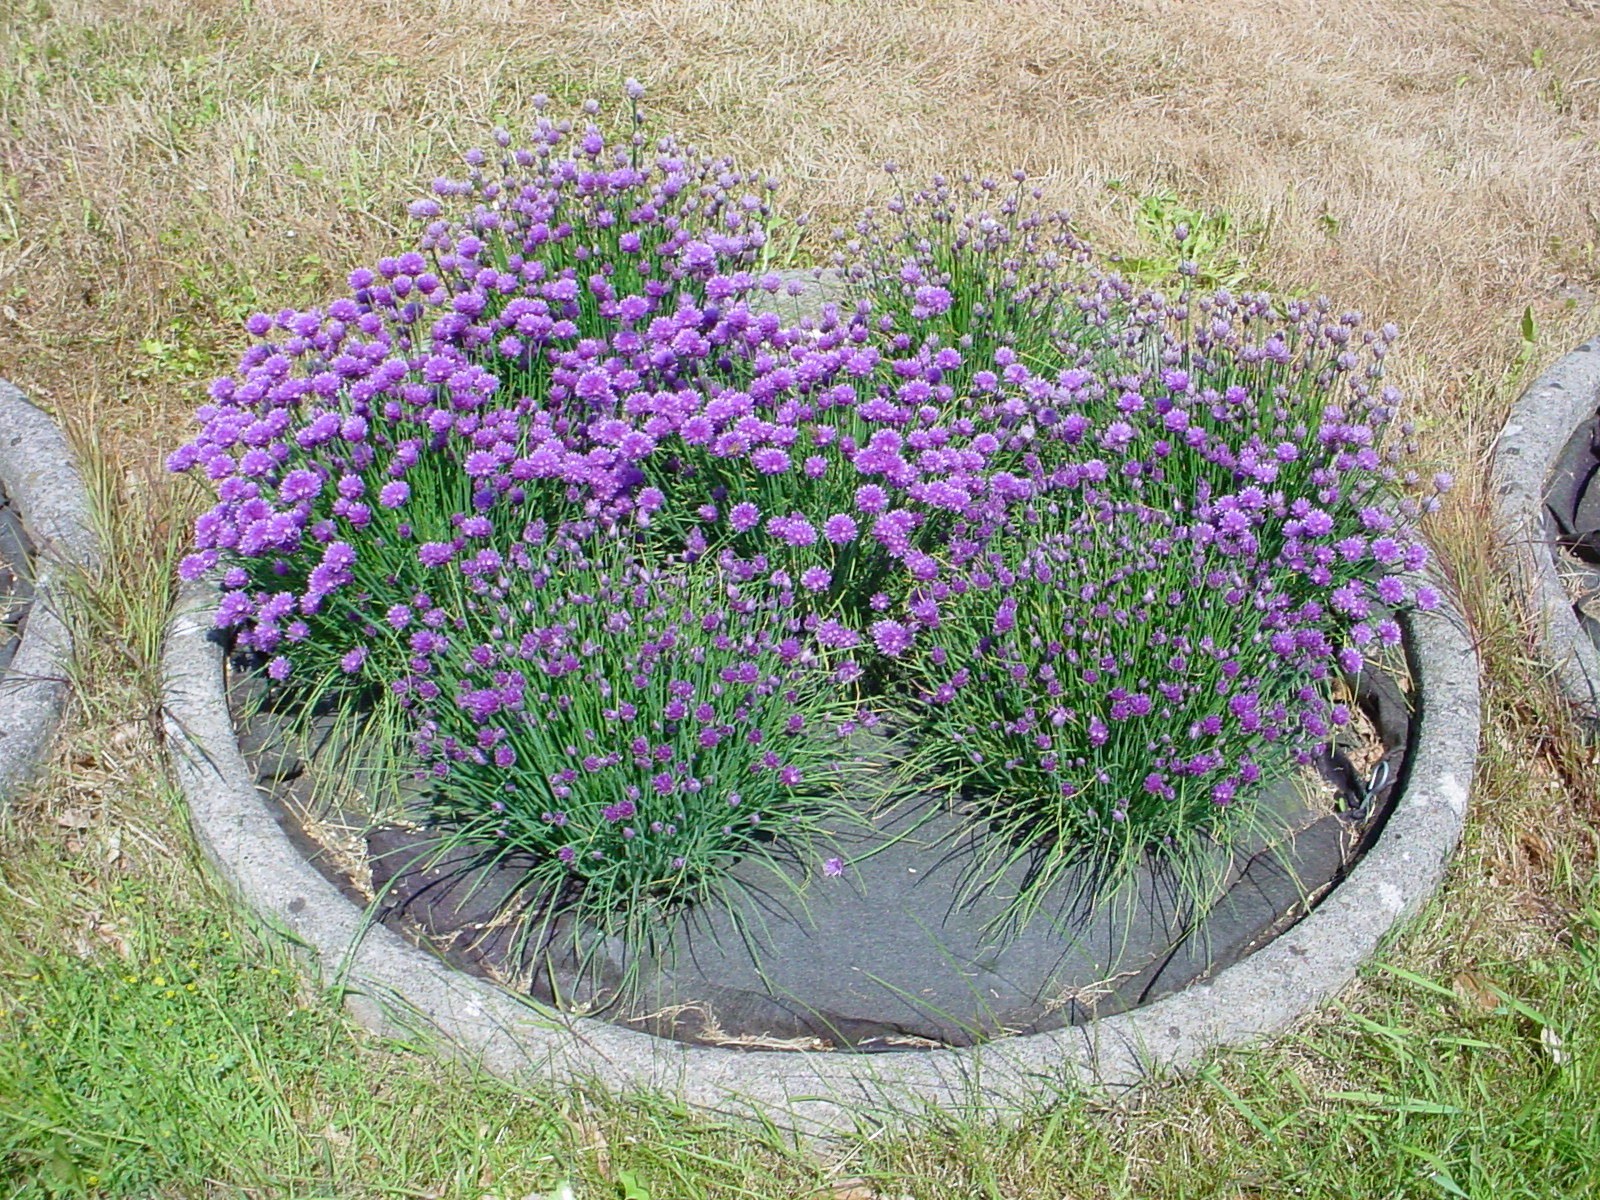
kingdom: Plantae
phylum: Tracheophyta
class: Liliopsida
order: Asparagales
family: Amaryllidaceae
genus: Allium
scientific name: Allium schoenoprasum
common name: Chives
